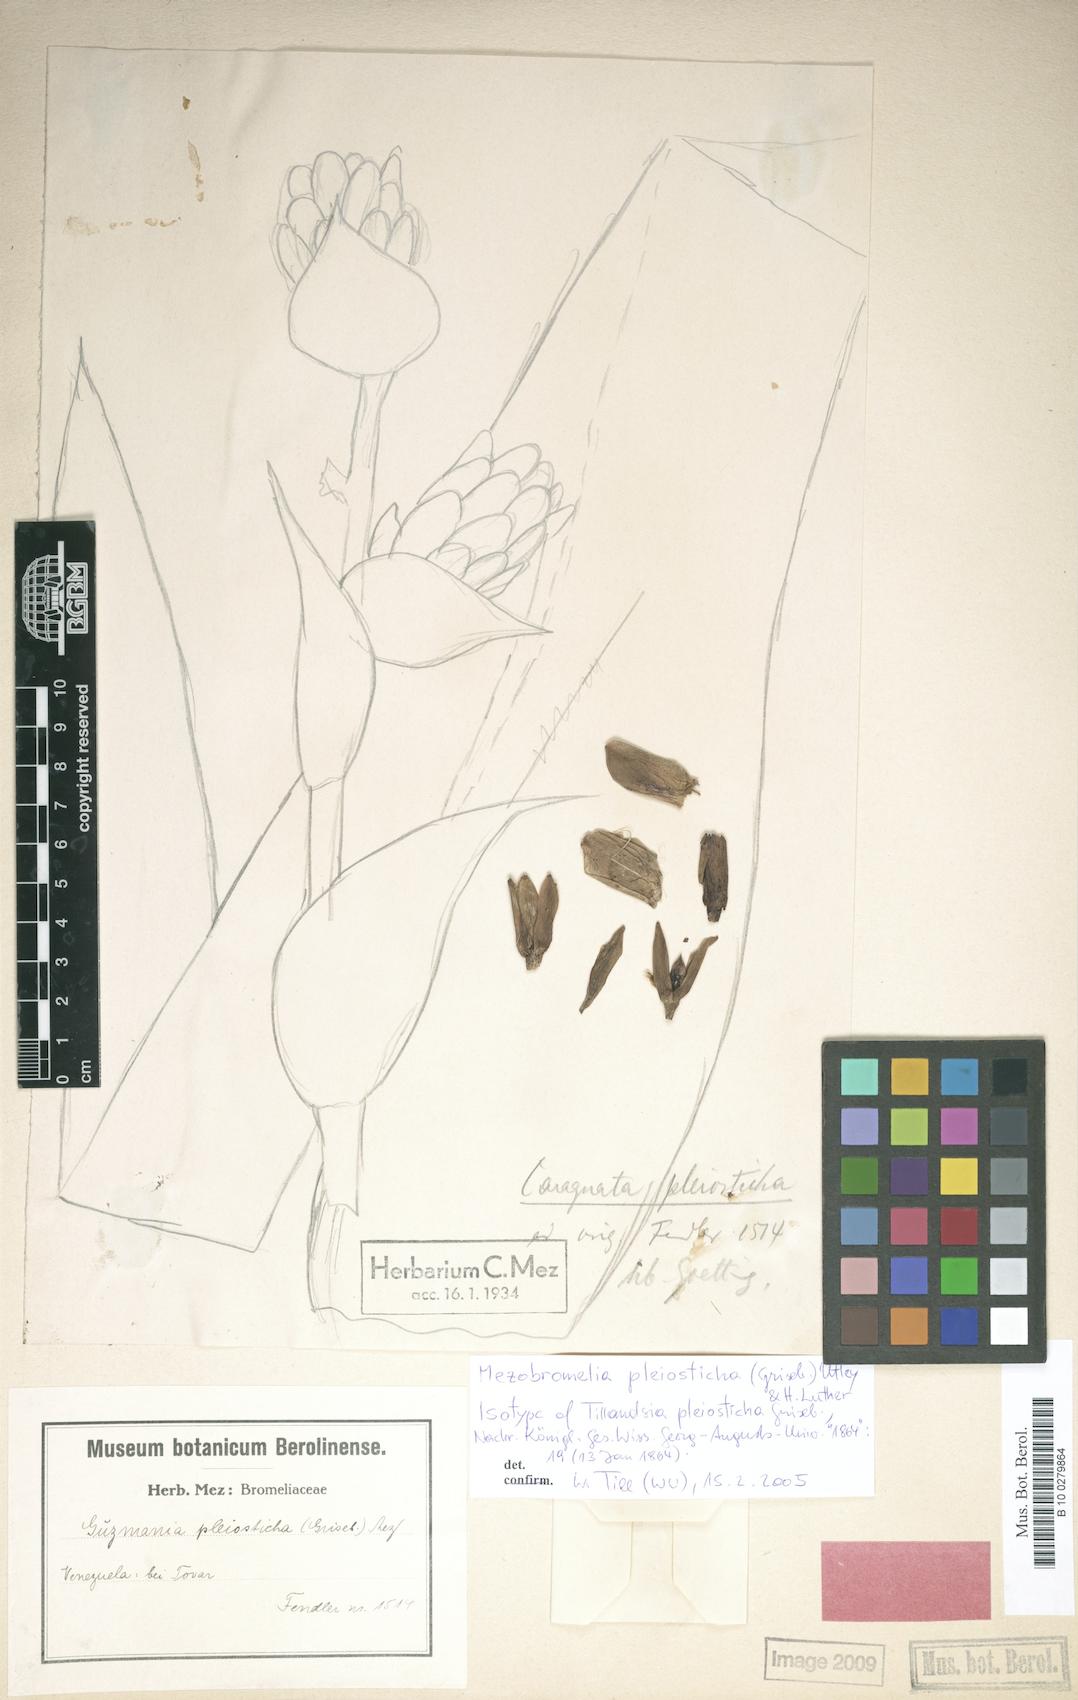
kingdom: Plantae
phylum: Tracheophyta
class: Liliopsida
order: Poales
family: Bromeliaceae
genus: Vriesea
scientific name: Vriesea pleiosticha
